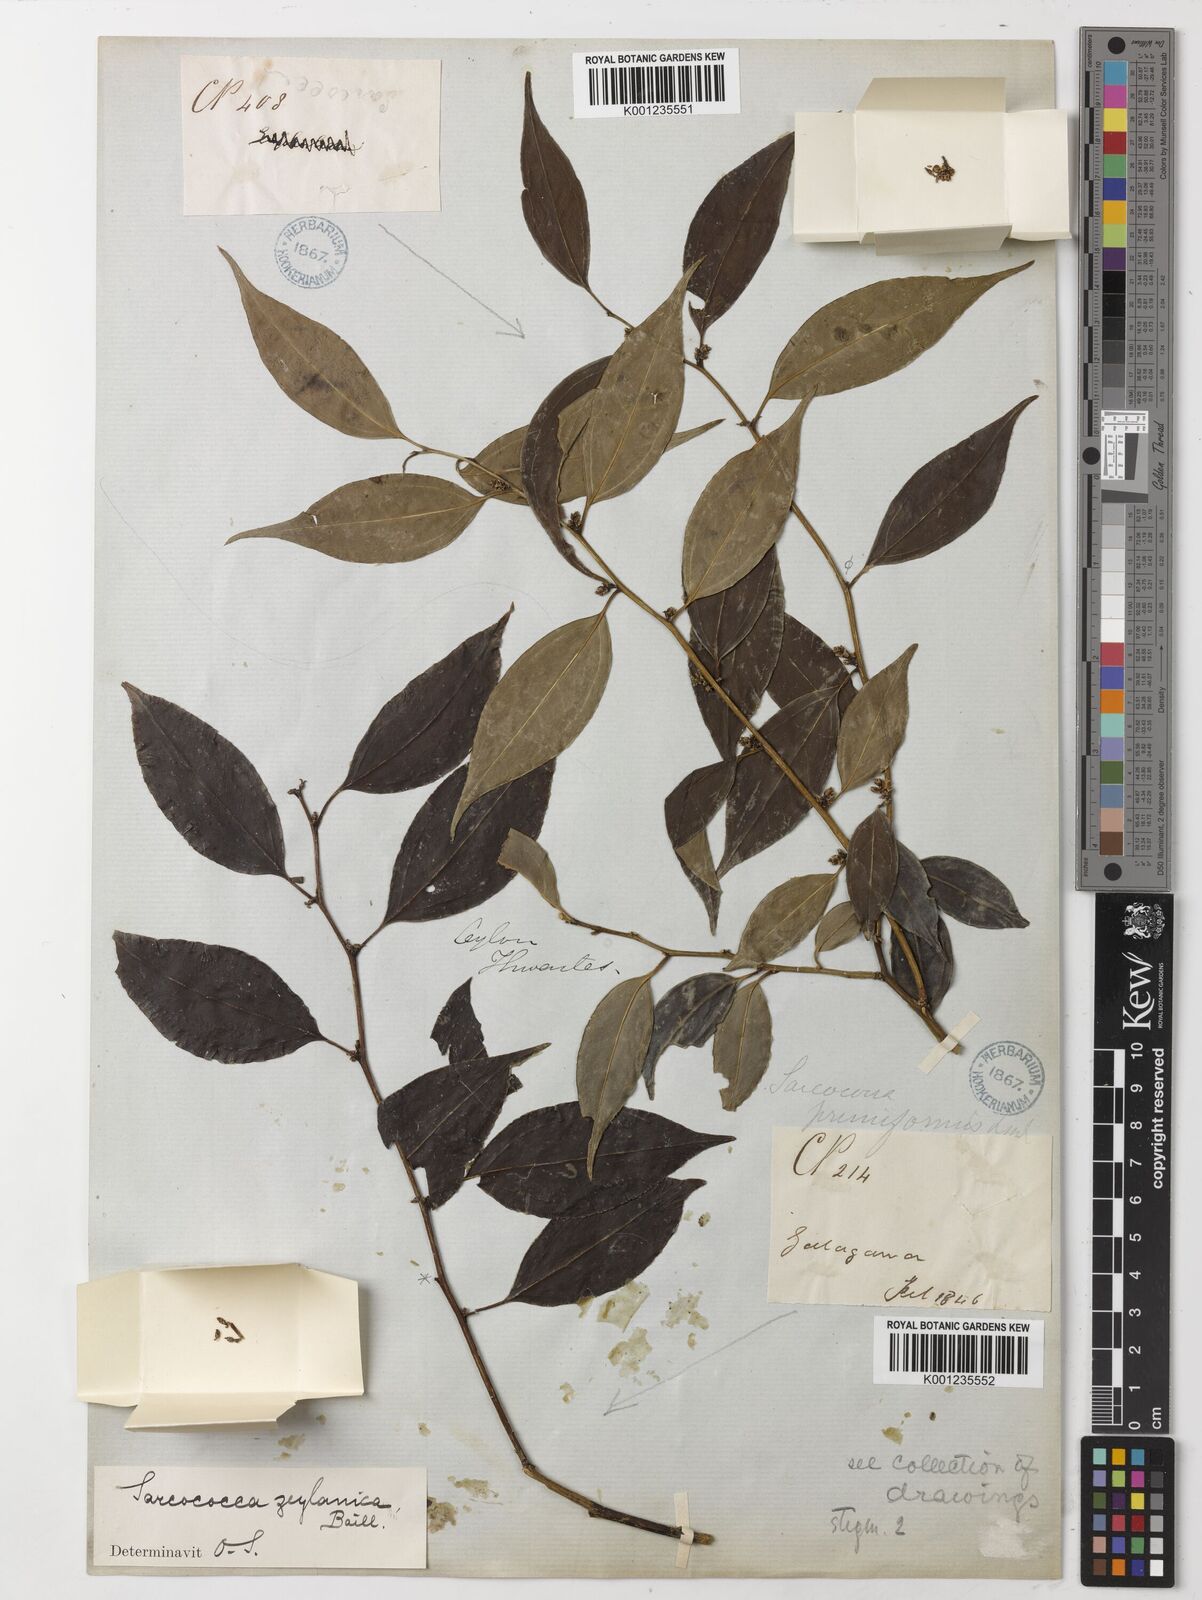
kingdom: Plantae
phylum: Tracheophyta
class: Magnoliopsida
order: Buxales
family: Buxaceae
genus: Sarcococca
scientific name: Sarcococca zeylanica
